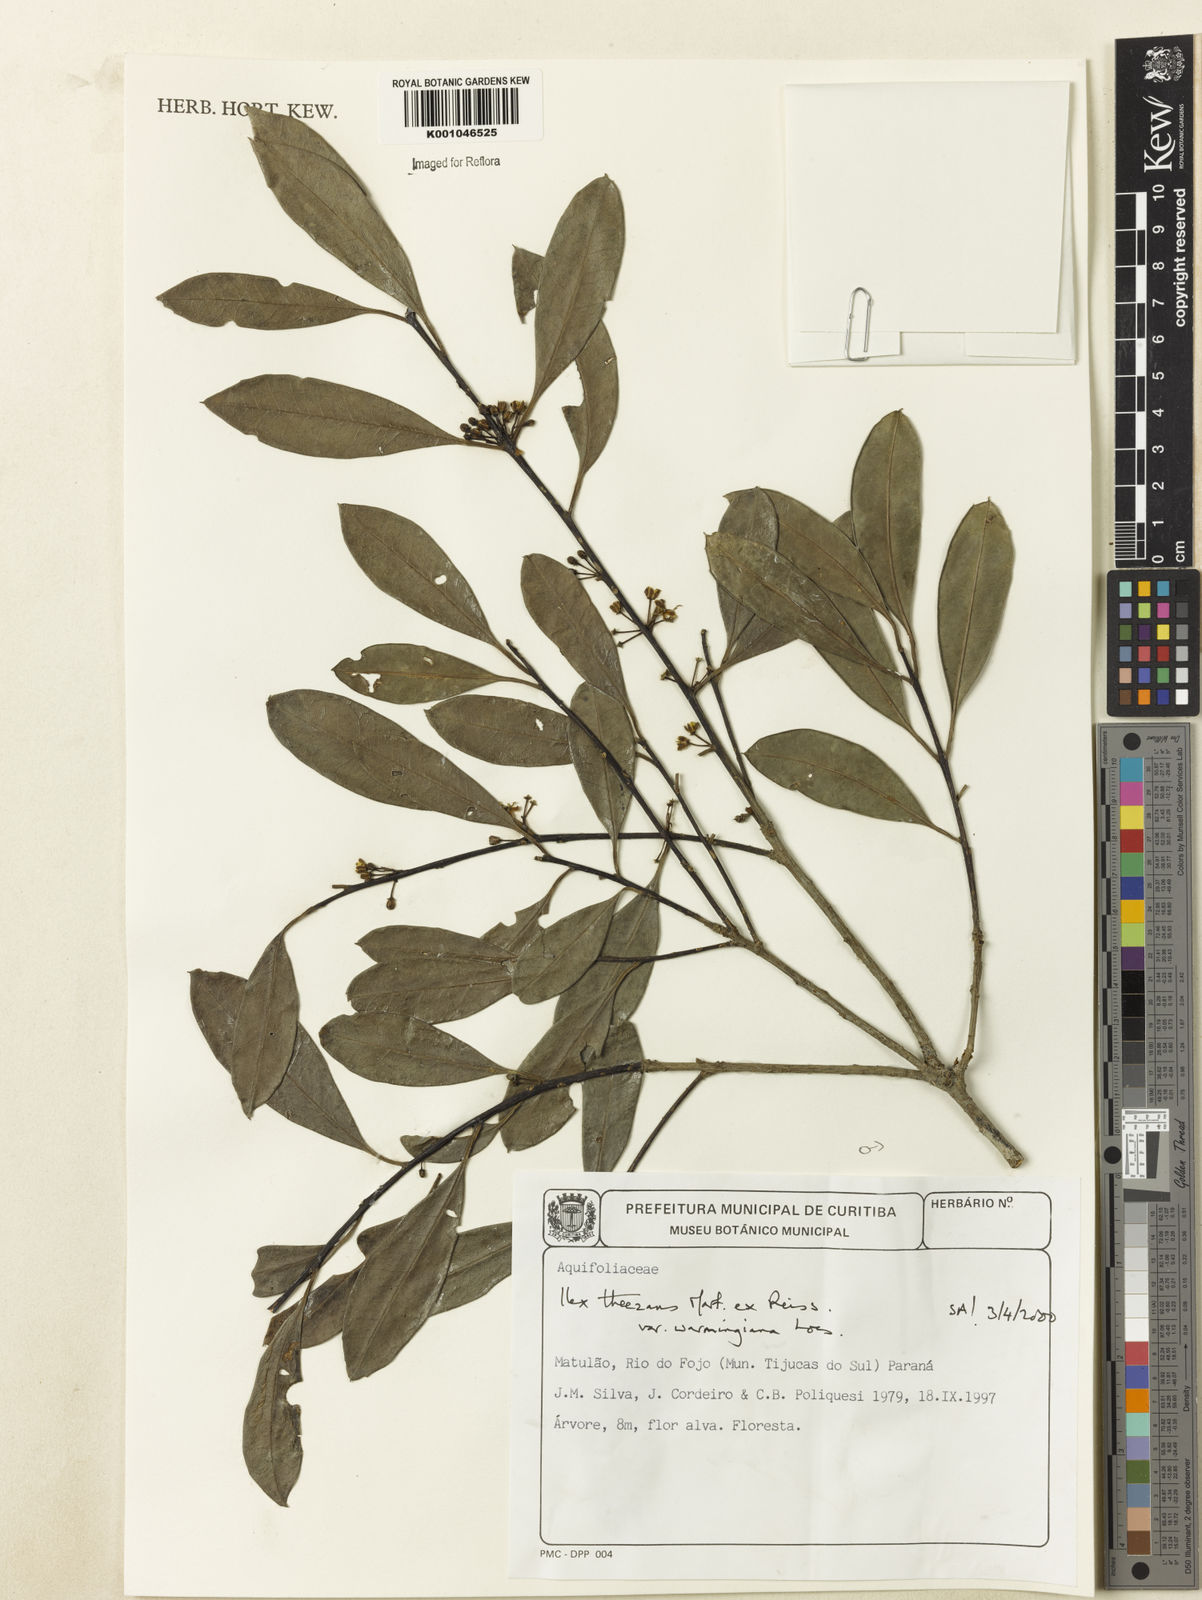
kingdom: Plantae
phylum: Tracheophyta
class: Magnoliopsida
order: Aquifoliales
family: Aquifoliaceae
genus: Ilex
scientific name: Ilex theezans
